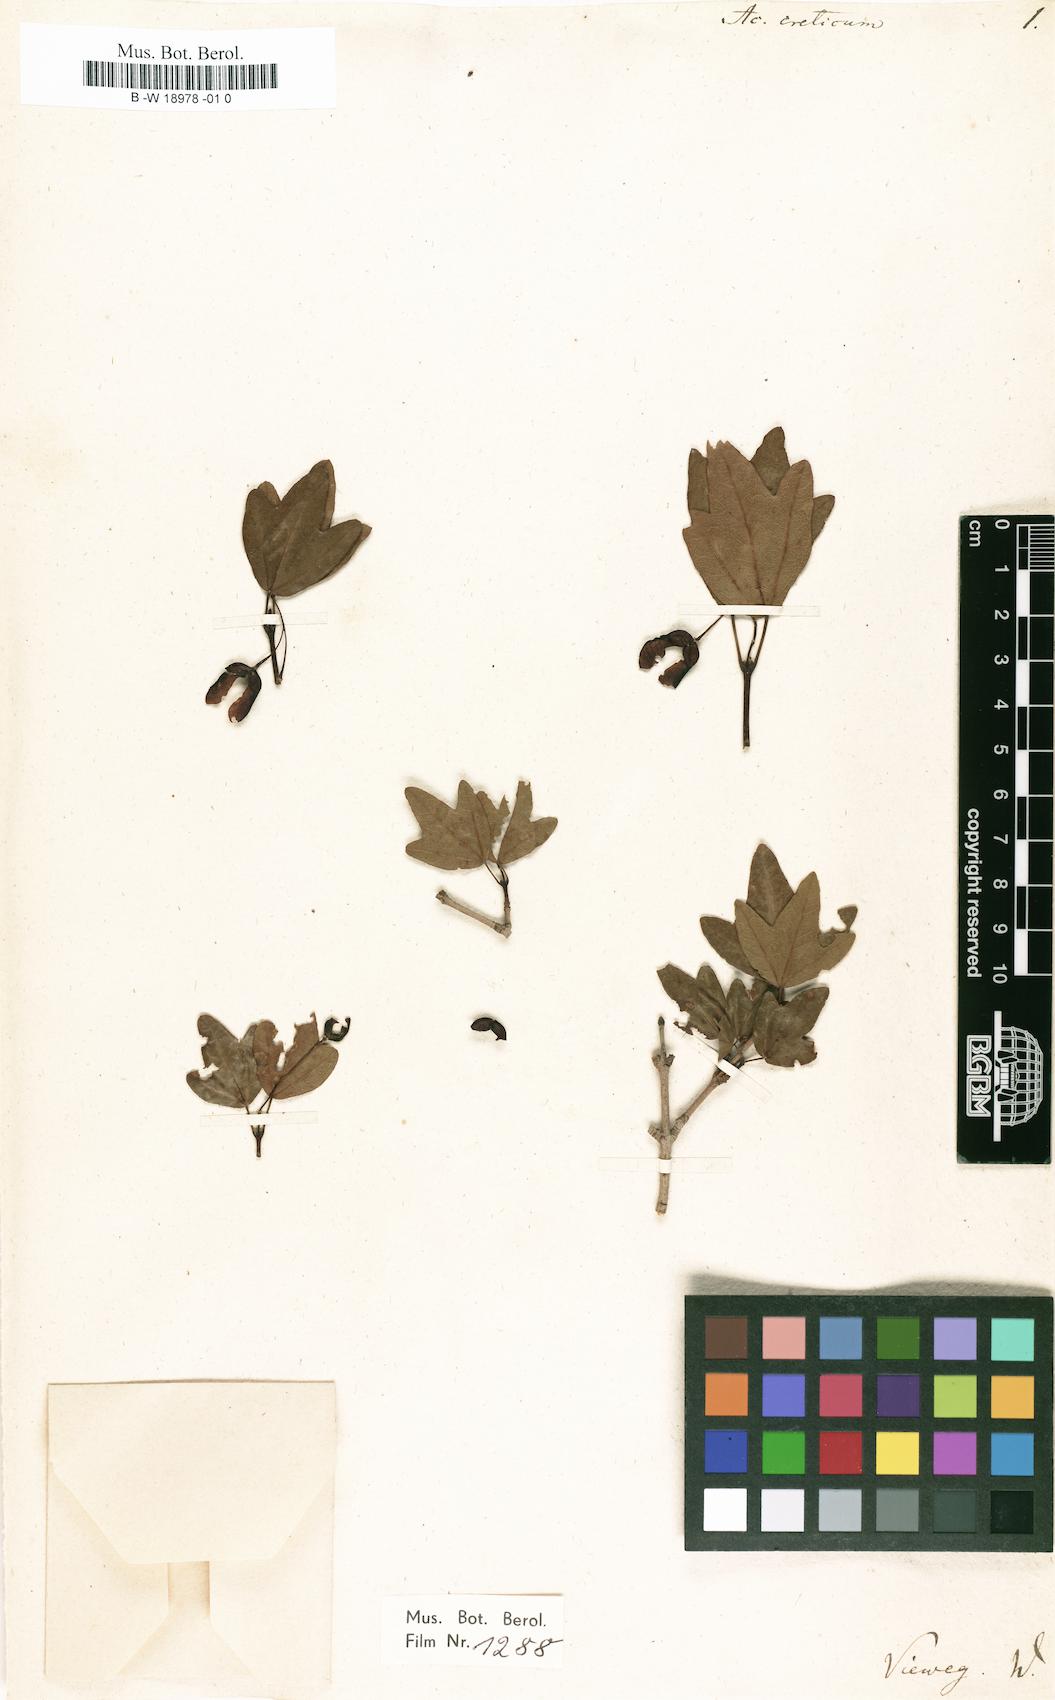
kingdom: Plantae
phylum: Tracheophyta
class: Magnoliopsida
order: Sapindales
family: Sapindaceae
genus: Acer
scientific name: Acer obtusifolium
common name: Cyprus maple
